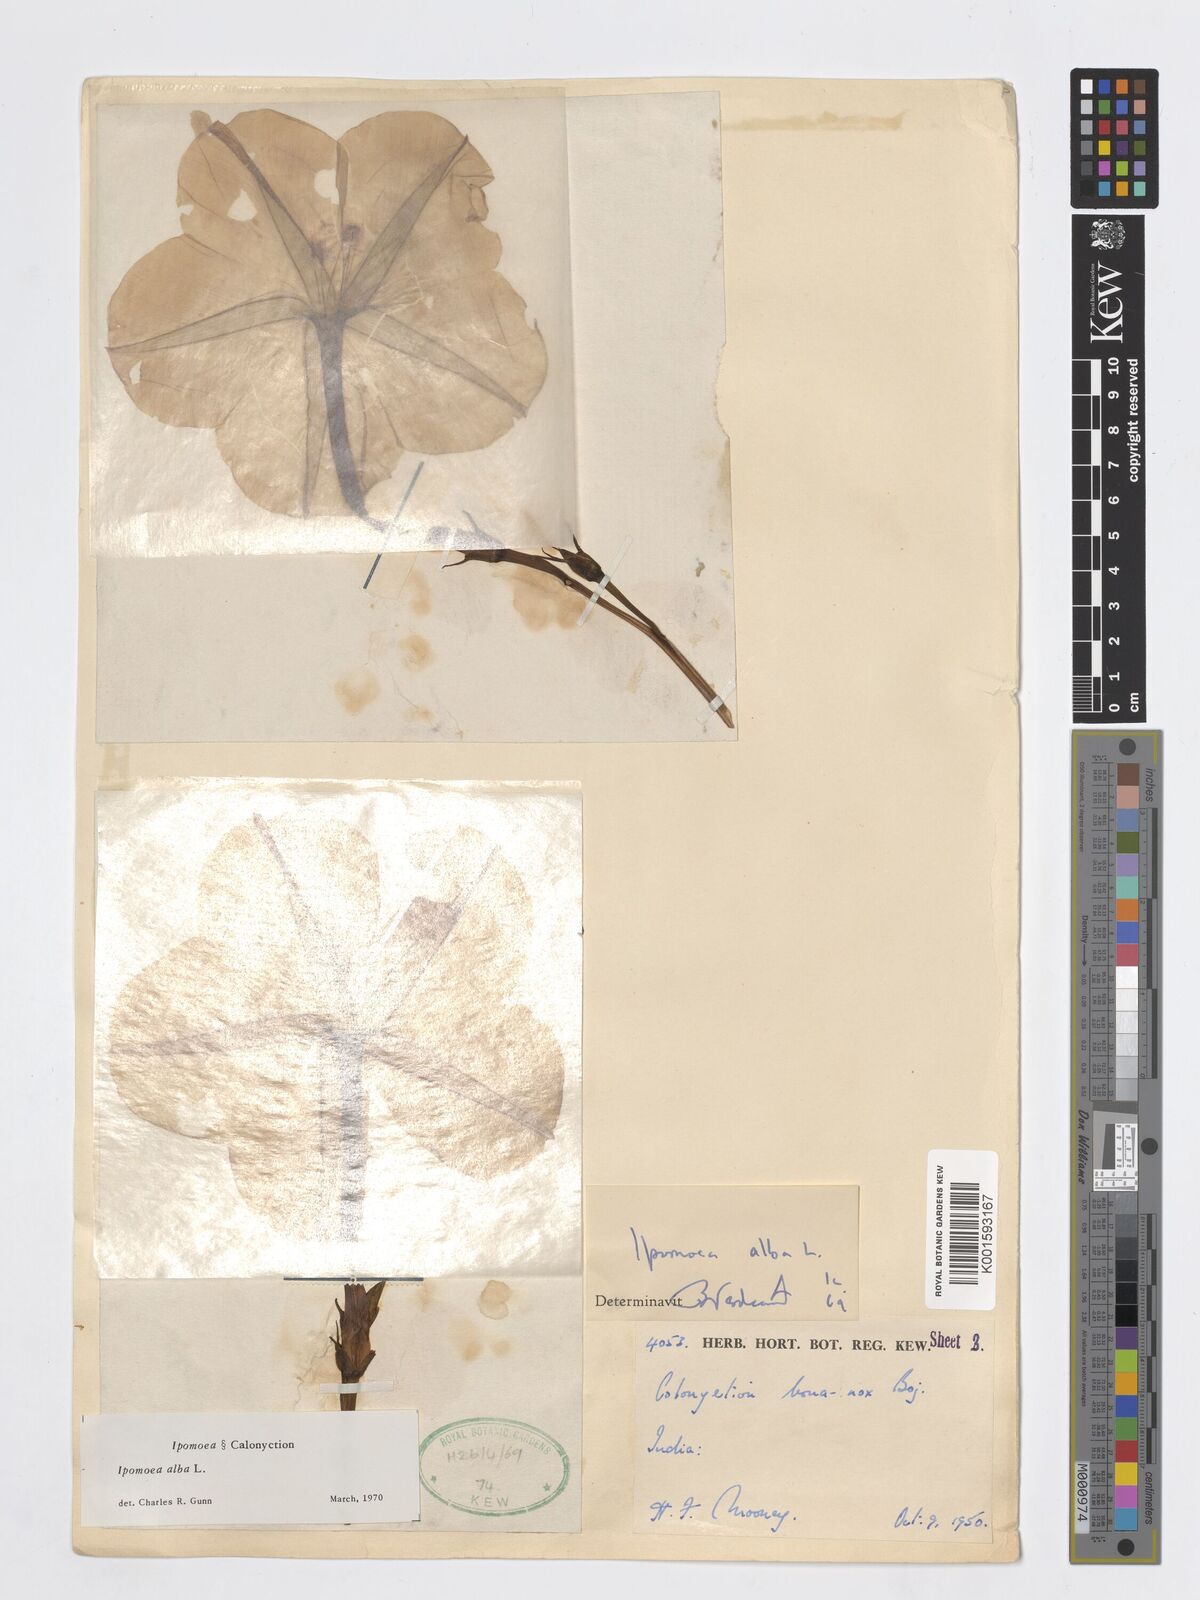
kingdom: Plantae
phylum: Tracheophyta
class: Magnoliopsida
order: Solanales
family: Convolvulaceae
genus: Ipomoea
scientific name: Ipomoea alba
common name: Moonflower
